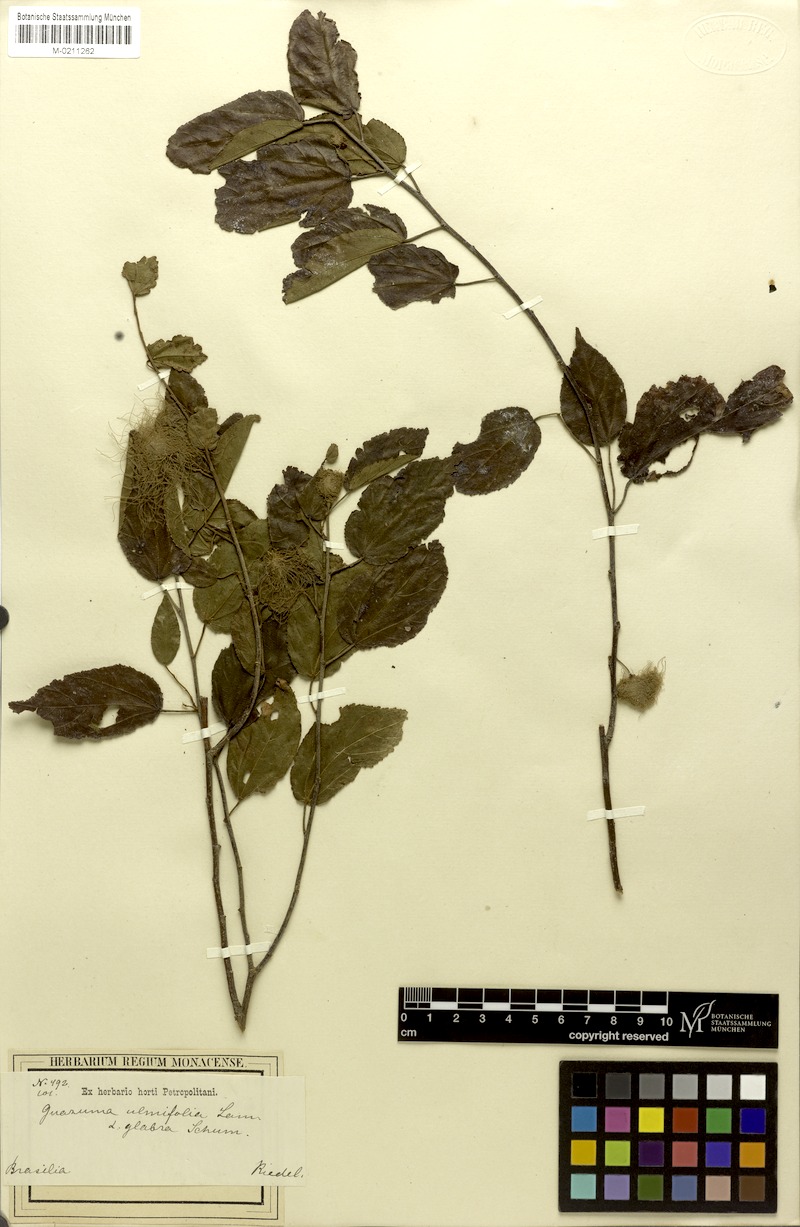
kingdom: Plantae
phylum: Tracheophyta
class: Magnoliopsida
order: Malvales
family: Malvaceae
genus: Guazuma
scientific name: Guazuma ulmifolia
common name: Bastard-cedar
